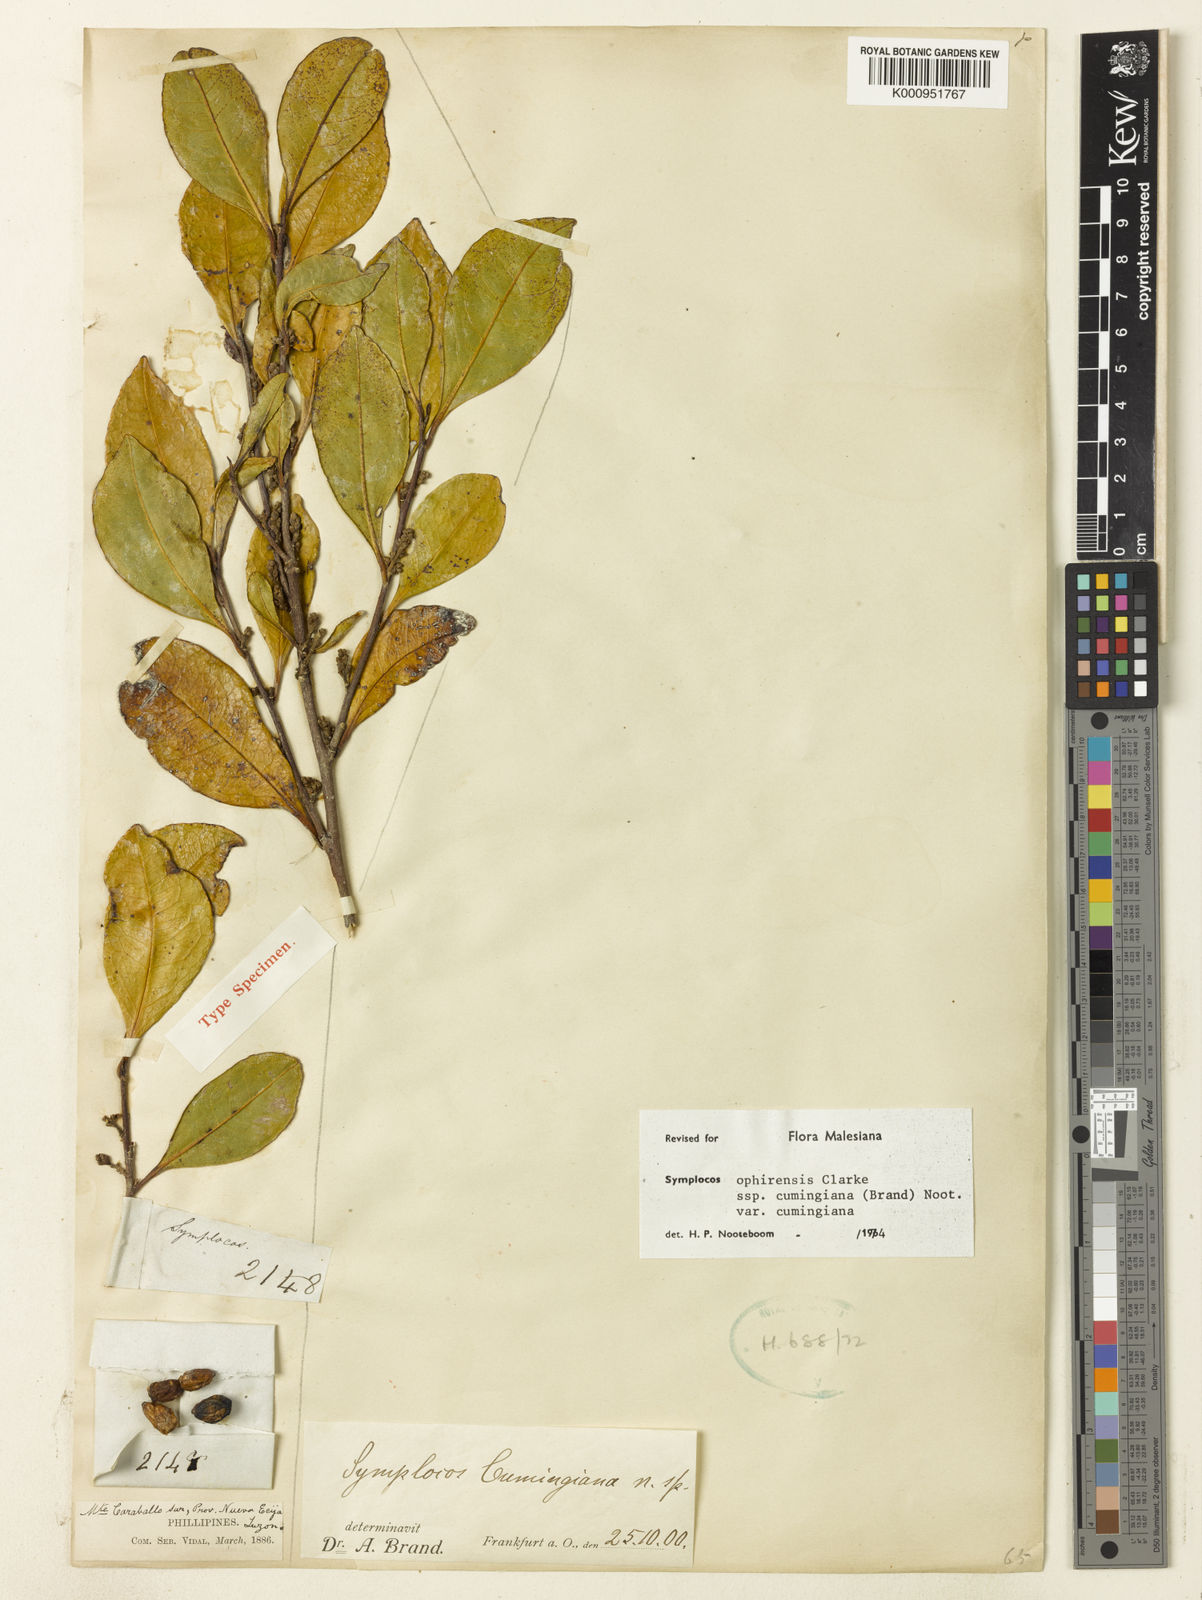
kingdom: Plantae
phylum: Tracheophyta
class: Magnoliopsida
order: Ericales
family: Symplocaceae
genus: Symplocos
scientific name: Symplocos ophirensis
